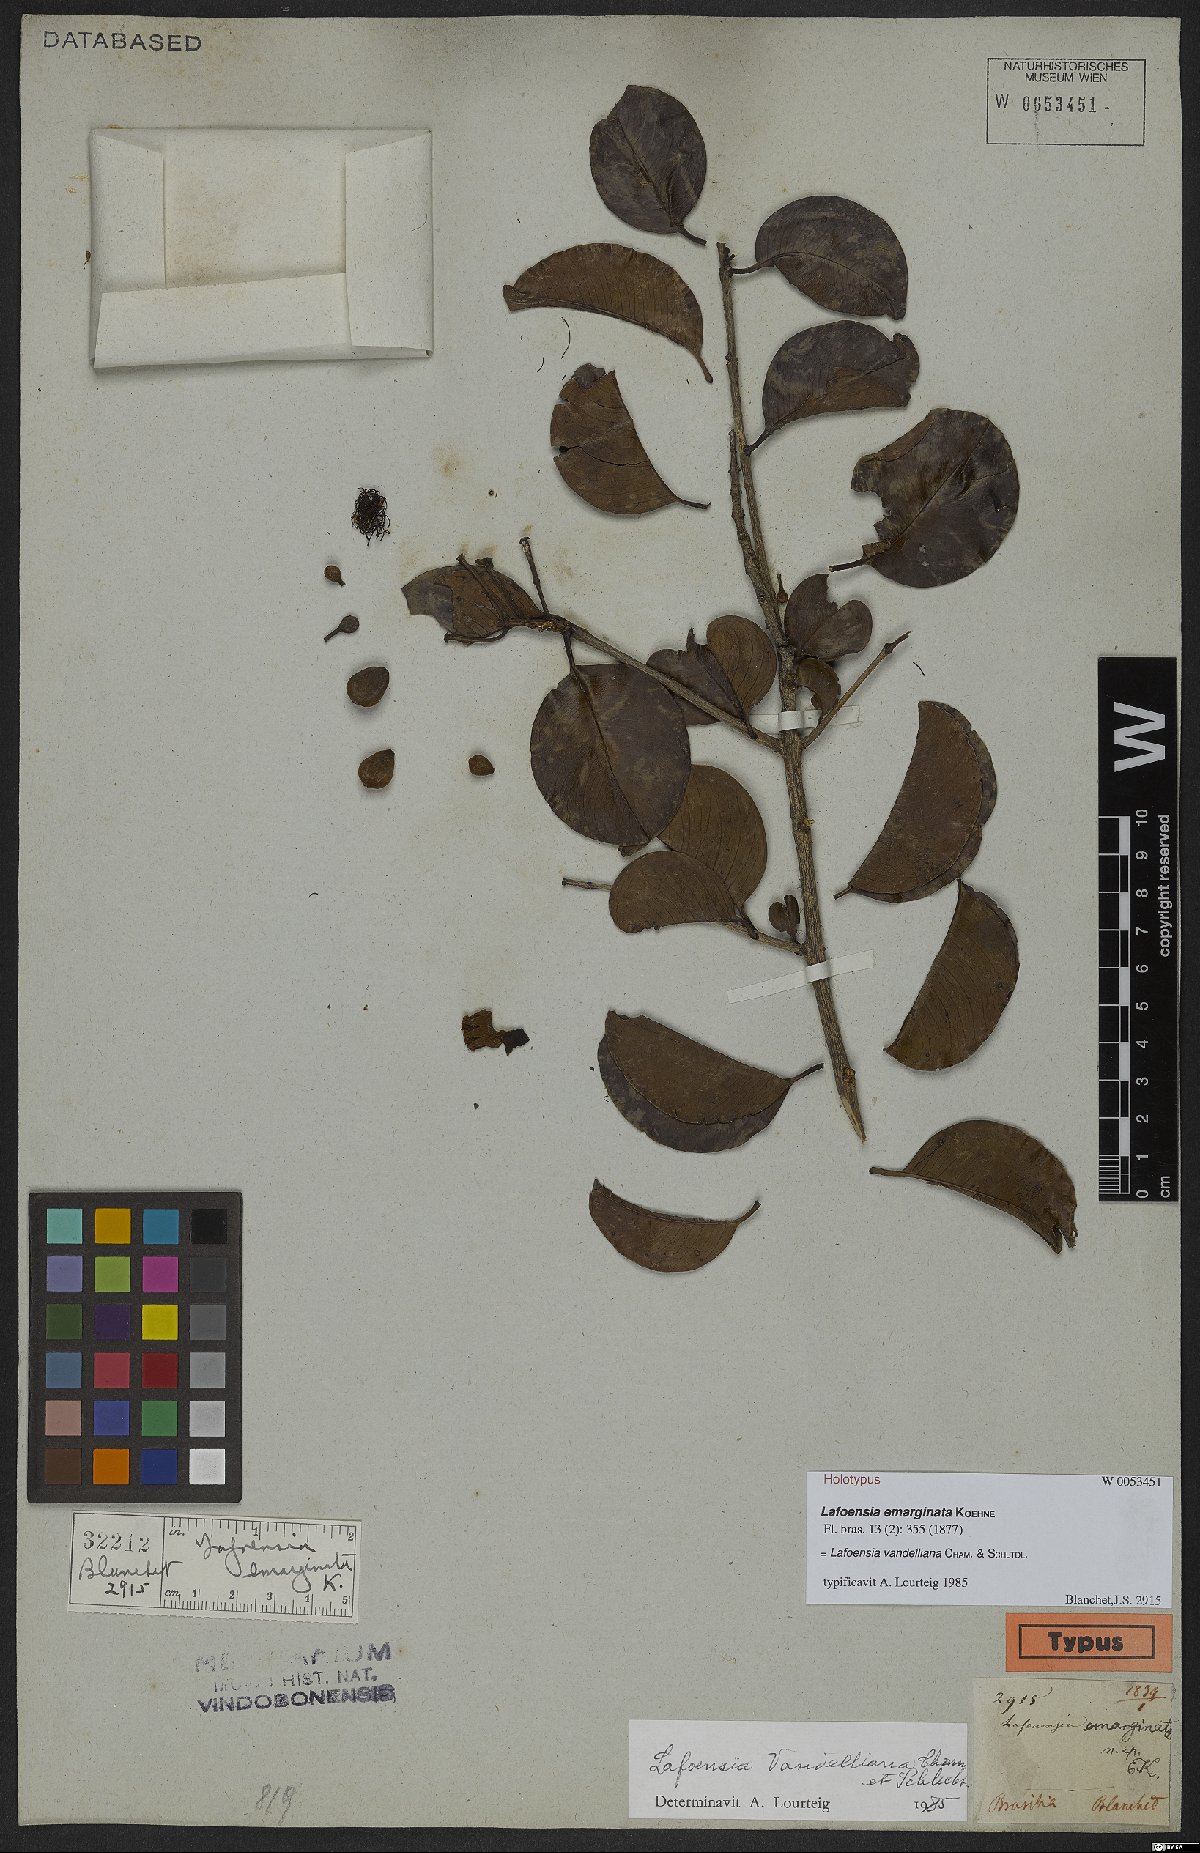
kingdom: Plantae
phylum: Tracheophyta
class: Magnoliopsida
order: Myrtales
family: Lythraceae
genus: Lafoensia
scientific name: Lafoensia vandelliana
